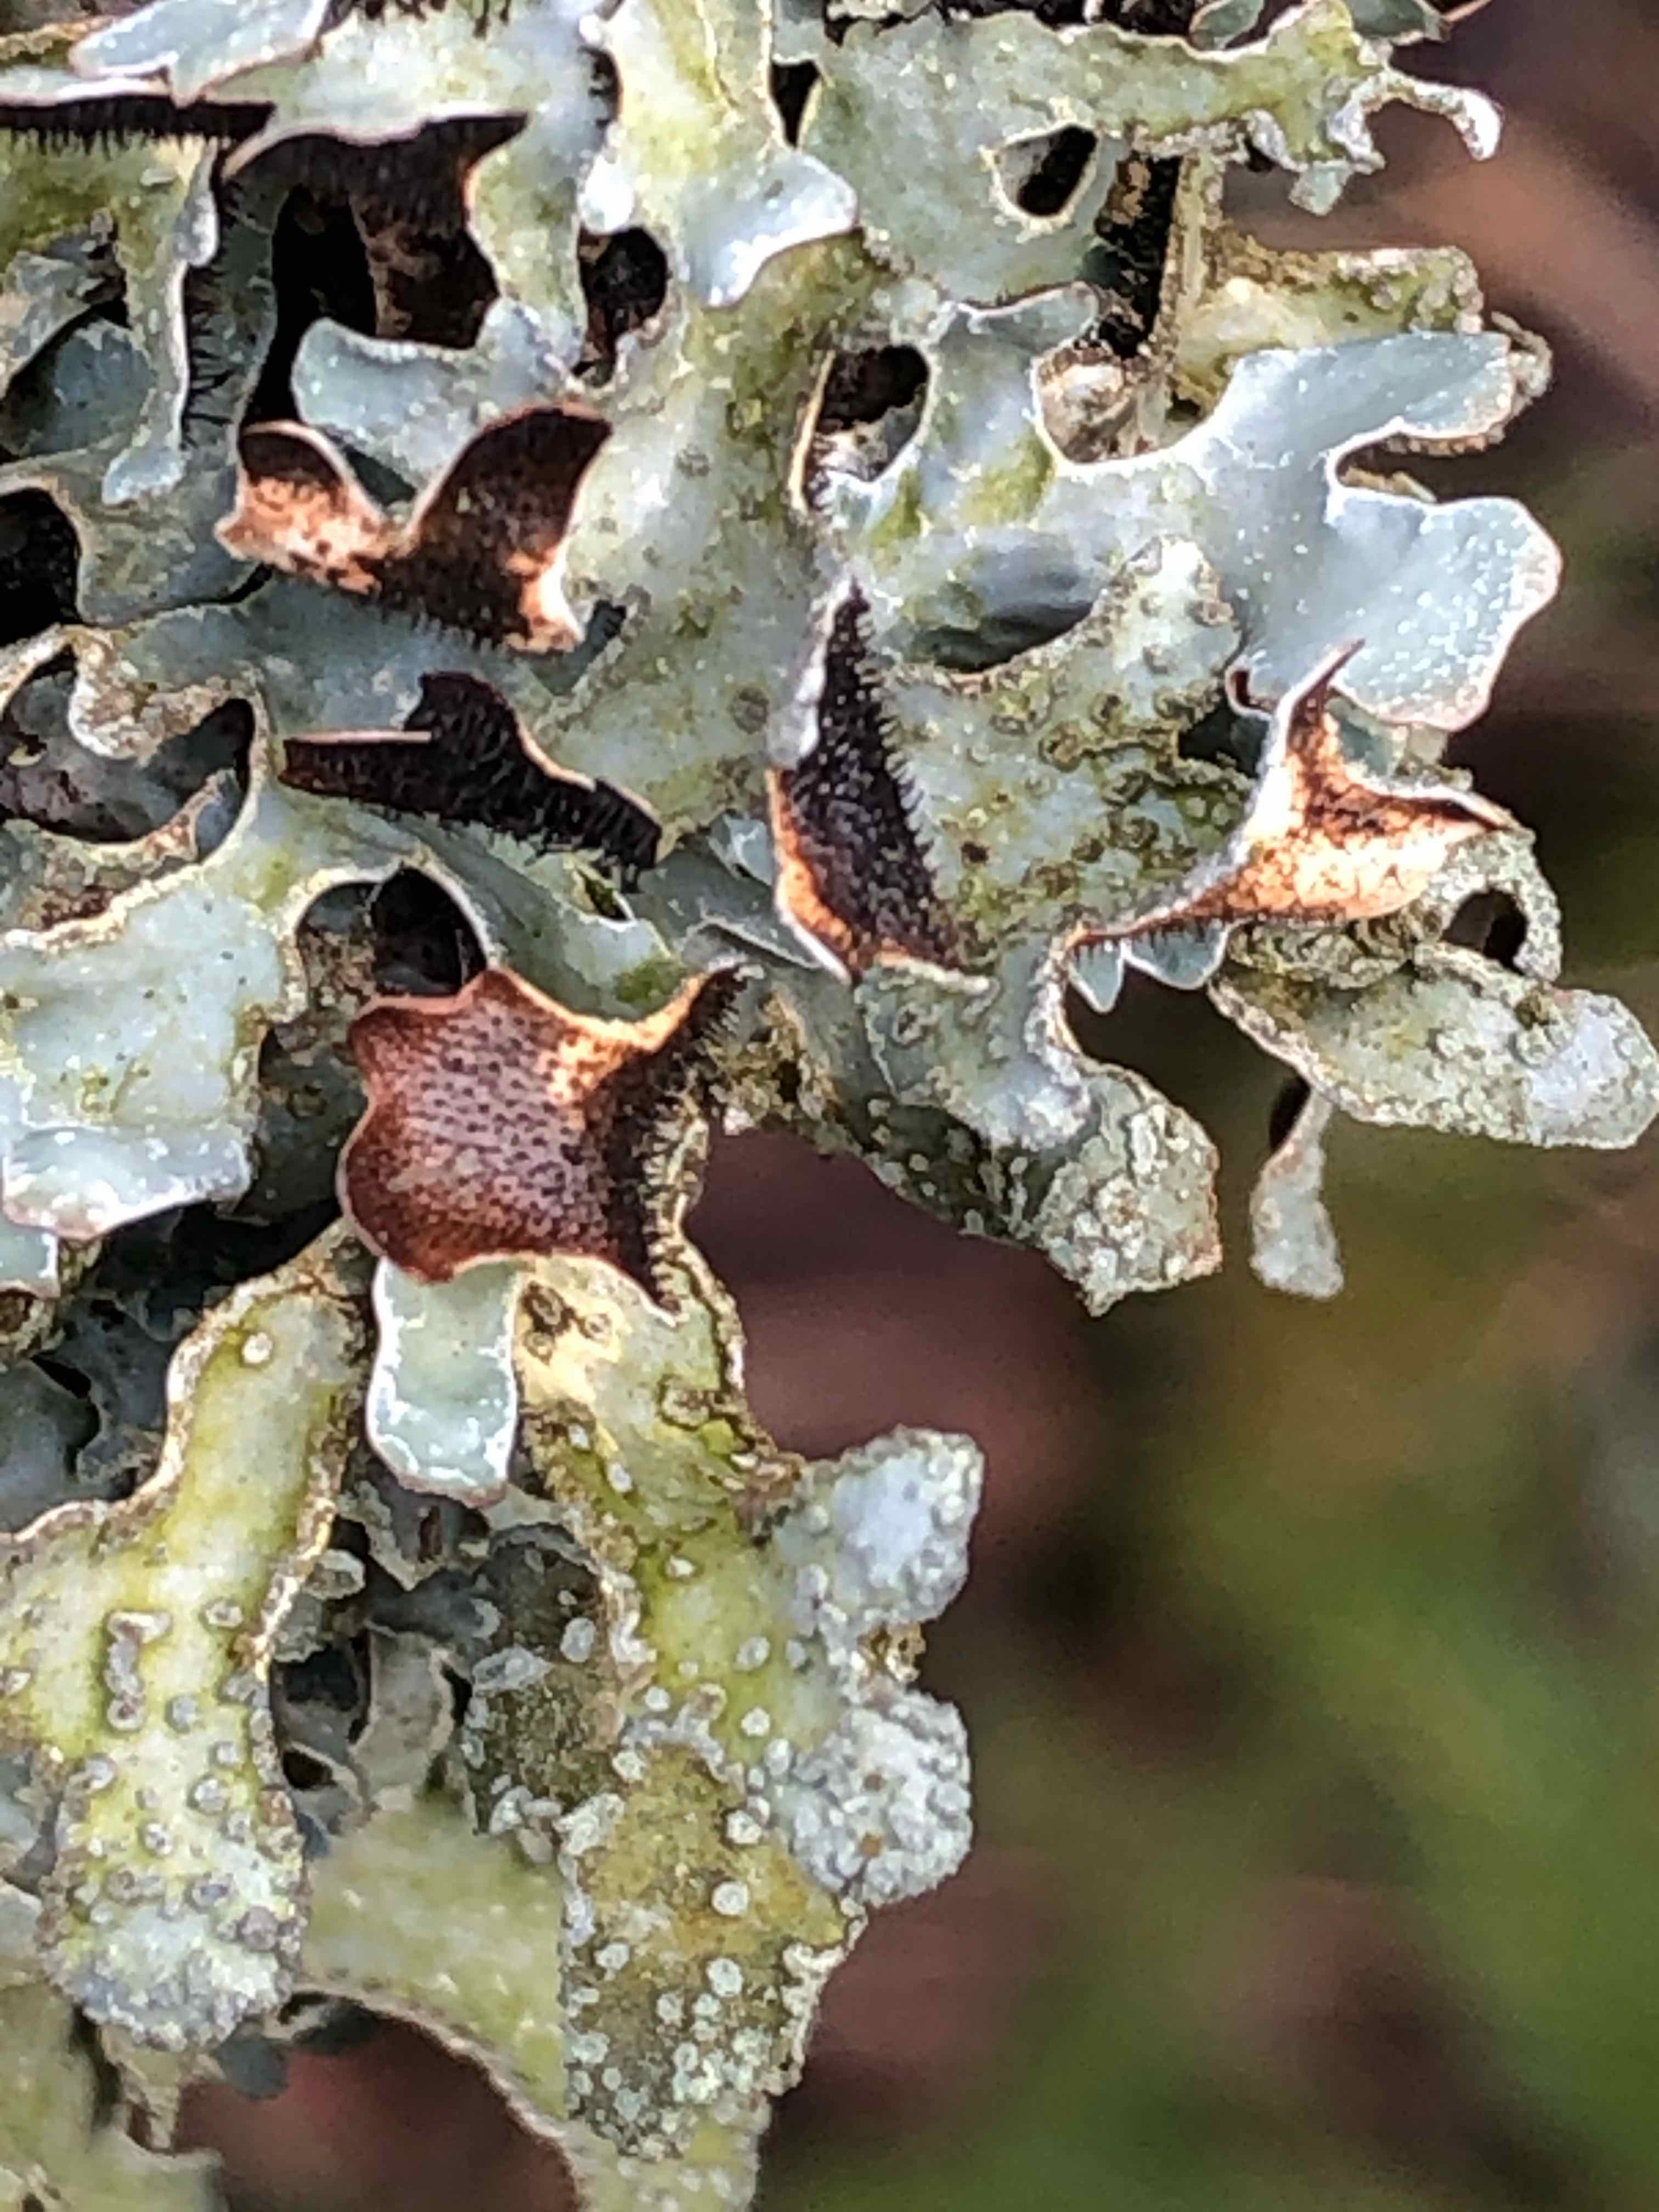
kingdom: Fungi
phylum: Ascomycota
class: Lecanoromycetes
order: Lecanorales
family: Parmeliaceae
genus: Parmelia
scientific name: Parmelia sulcata
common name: rynket skållav
